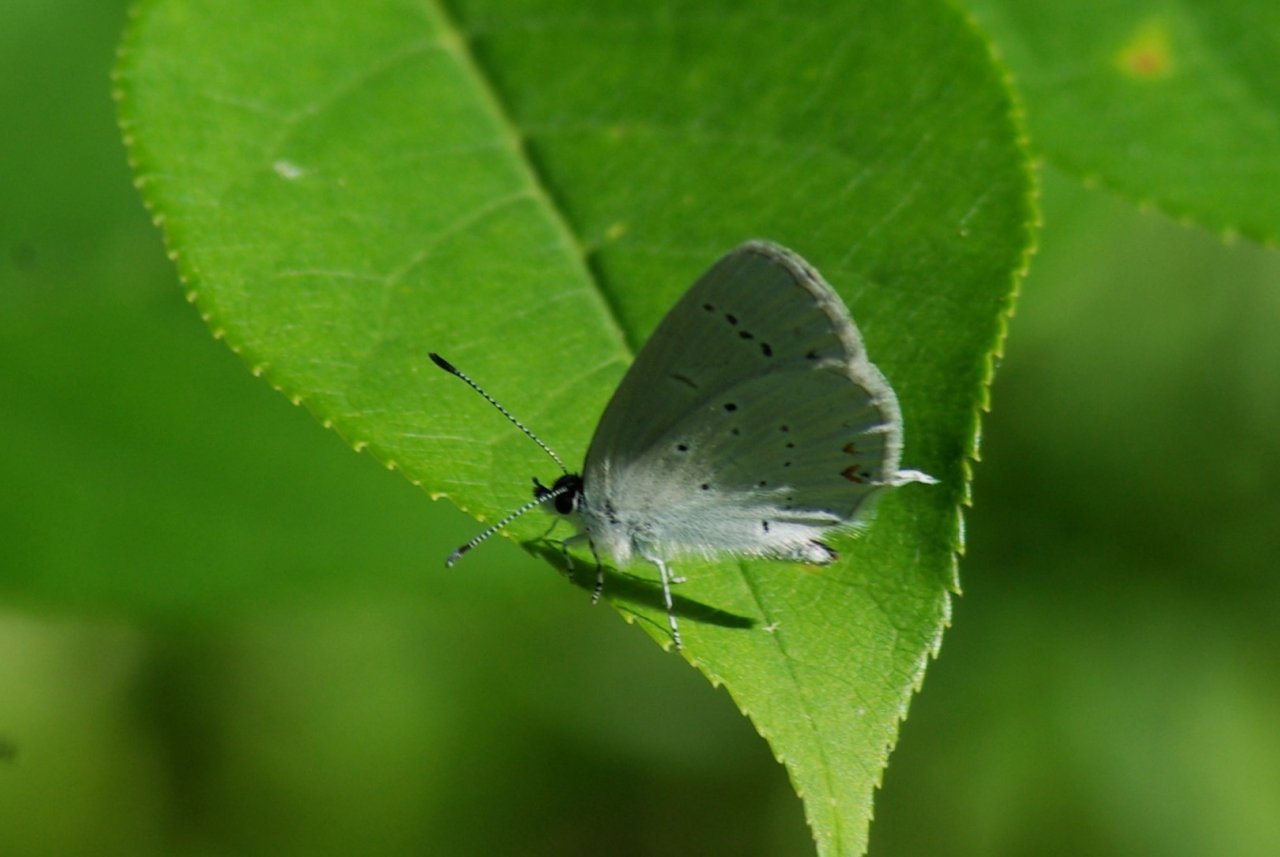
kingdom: Animalia
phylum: Arthropoda
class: Insecta
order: Lepidoptera
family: Lycaenidae
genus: Elkalyce
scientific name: Elkalyce amyntula
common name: Western Tailed-Blue
